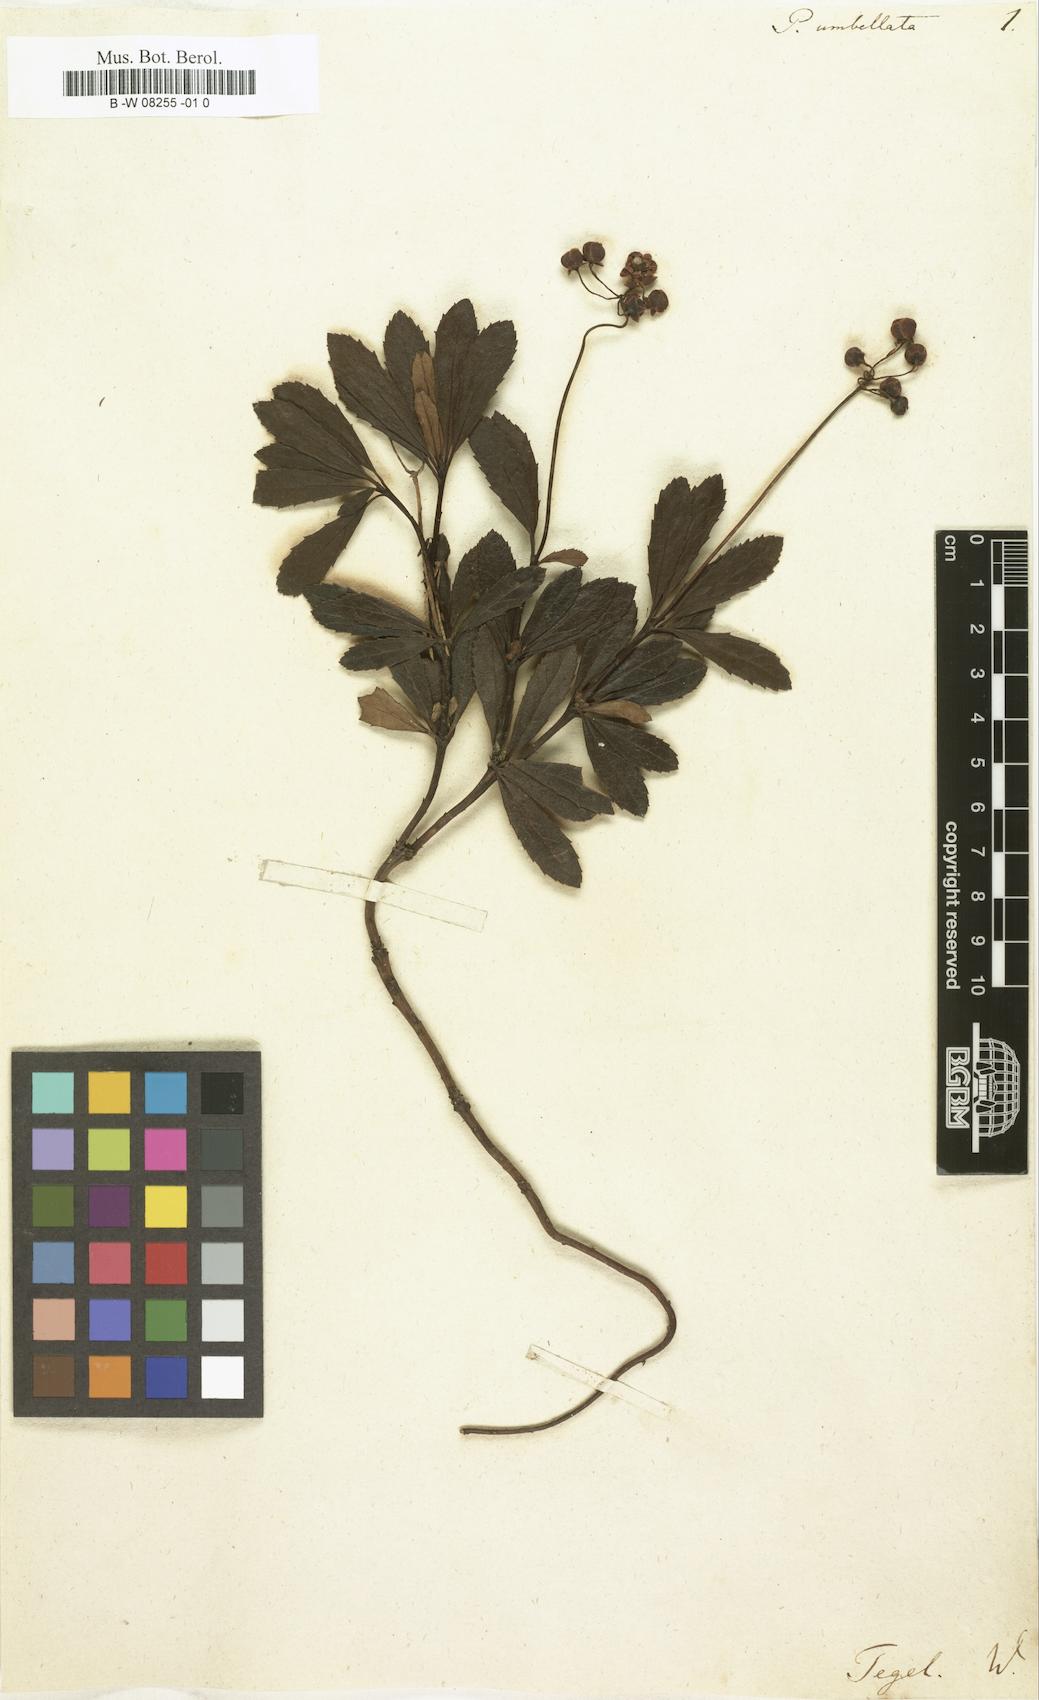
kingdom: Plantae
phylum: Tracheophyta
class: Magnoliopsida
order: Ericales
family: Ericaceae
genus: Chimaphila
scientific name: Chimaphila umbellata
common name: Pipsissewa
